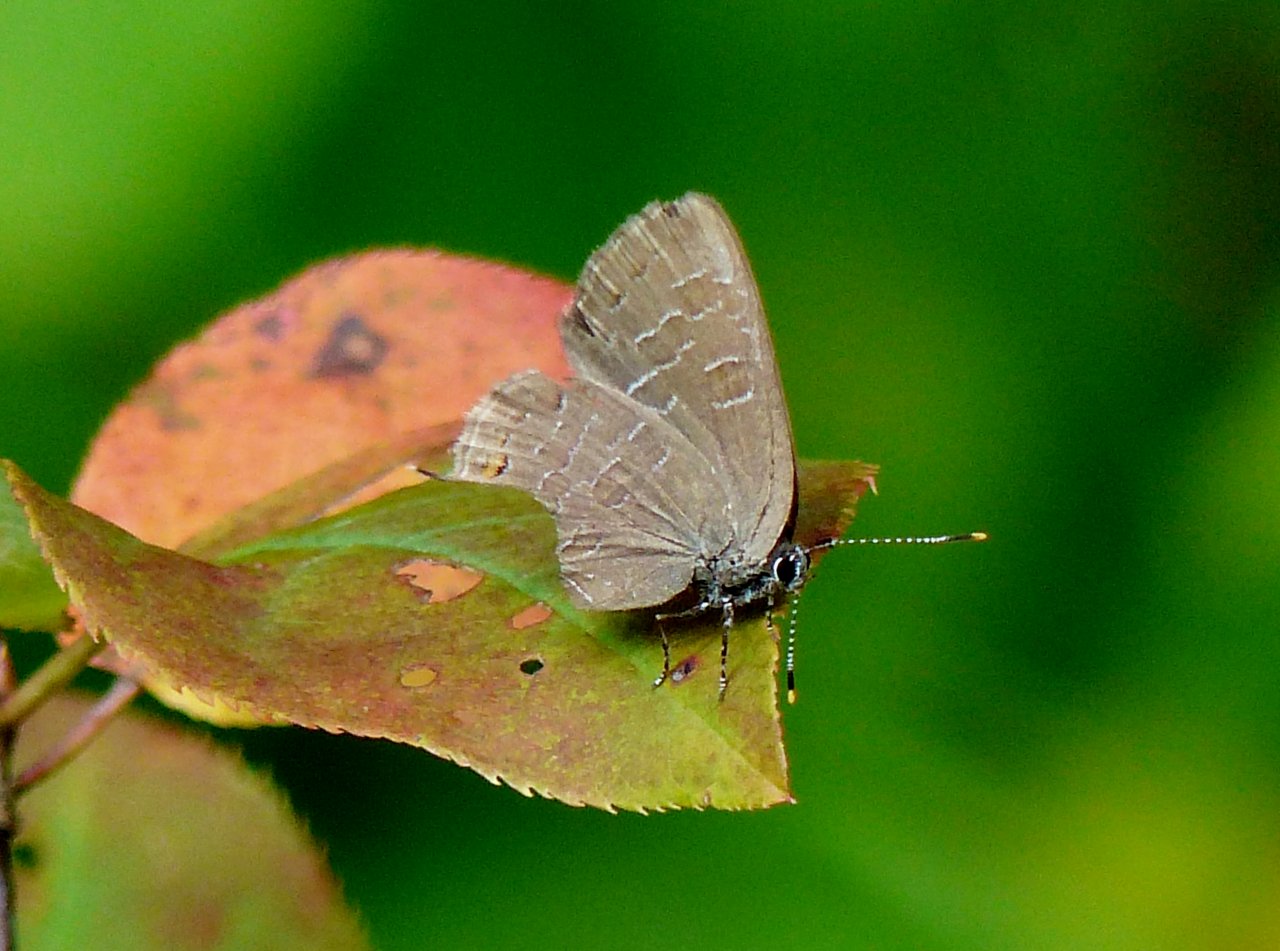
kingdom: Animalia
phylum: Arthropoda
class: Insecta
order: Lepidoptera
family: Lycaenidae
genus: Satyrium
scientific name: Satyrium liparops
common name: Striped Hairstreak
